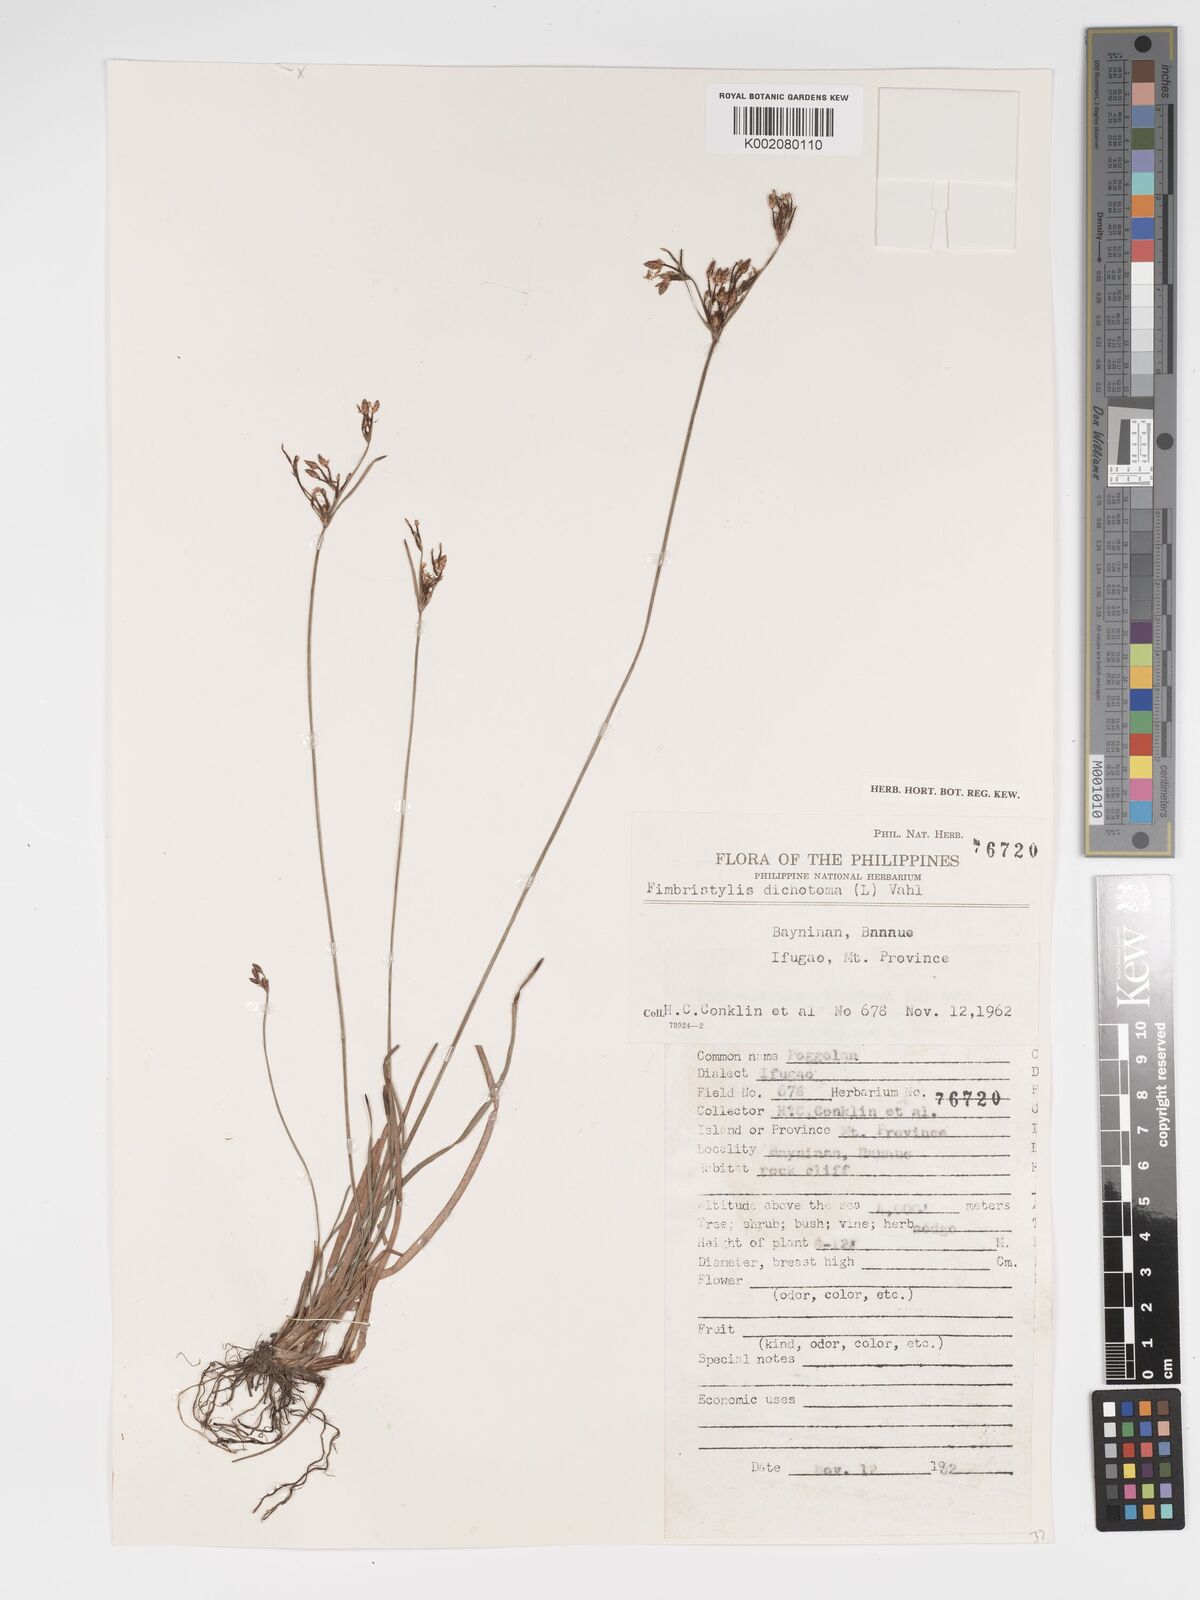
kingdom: Plantae
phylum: Tracheophyta
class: Liliopsida
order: Poales
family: Cyperaceae
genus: Fimbristylis
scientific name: Fimbristylis dichotoma
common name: Forked fimbry
